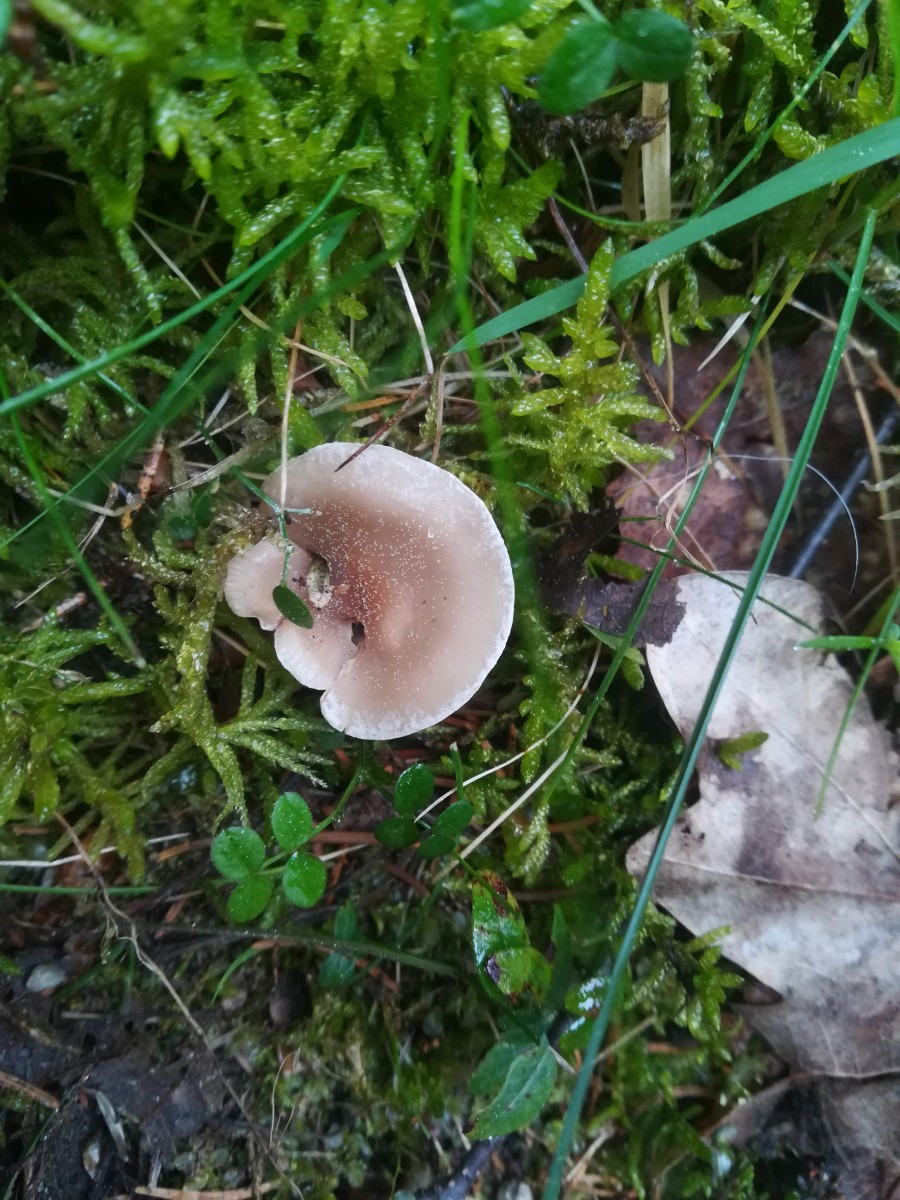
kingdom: Fungi
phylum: Basidiomycota
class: Agaricomycetes
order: Agaricales
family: Tricholomataceae
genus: Clitocybe
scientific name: Clitocybe fragrans
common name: vellugtende tragthat
